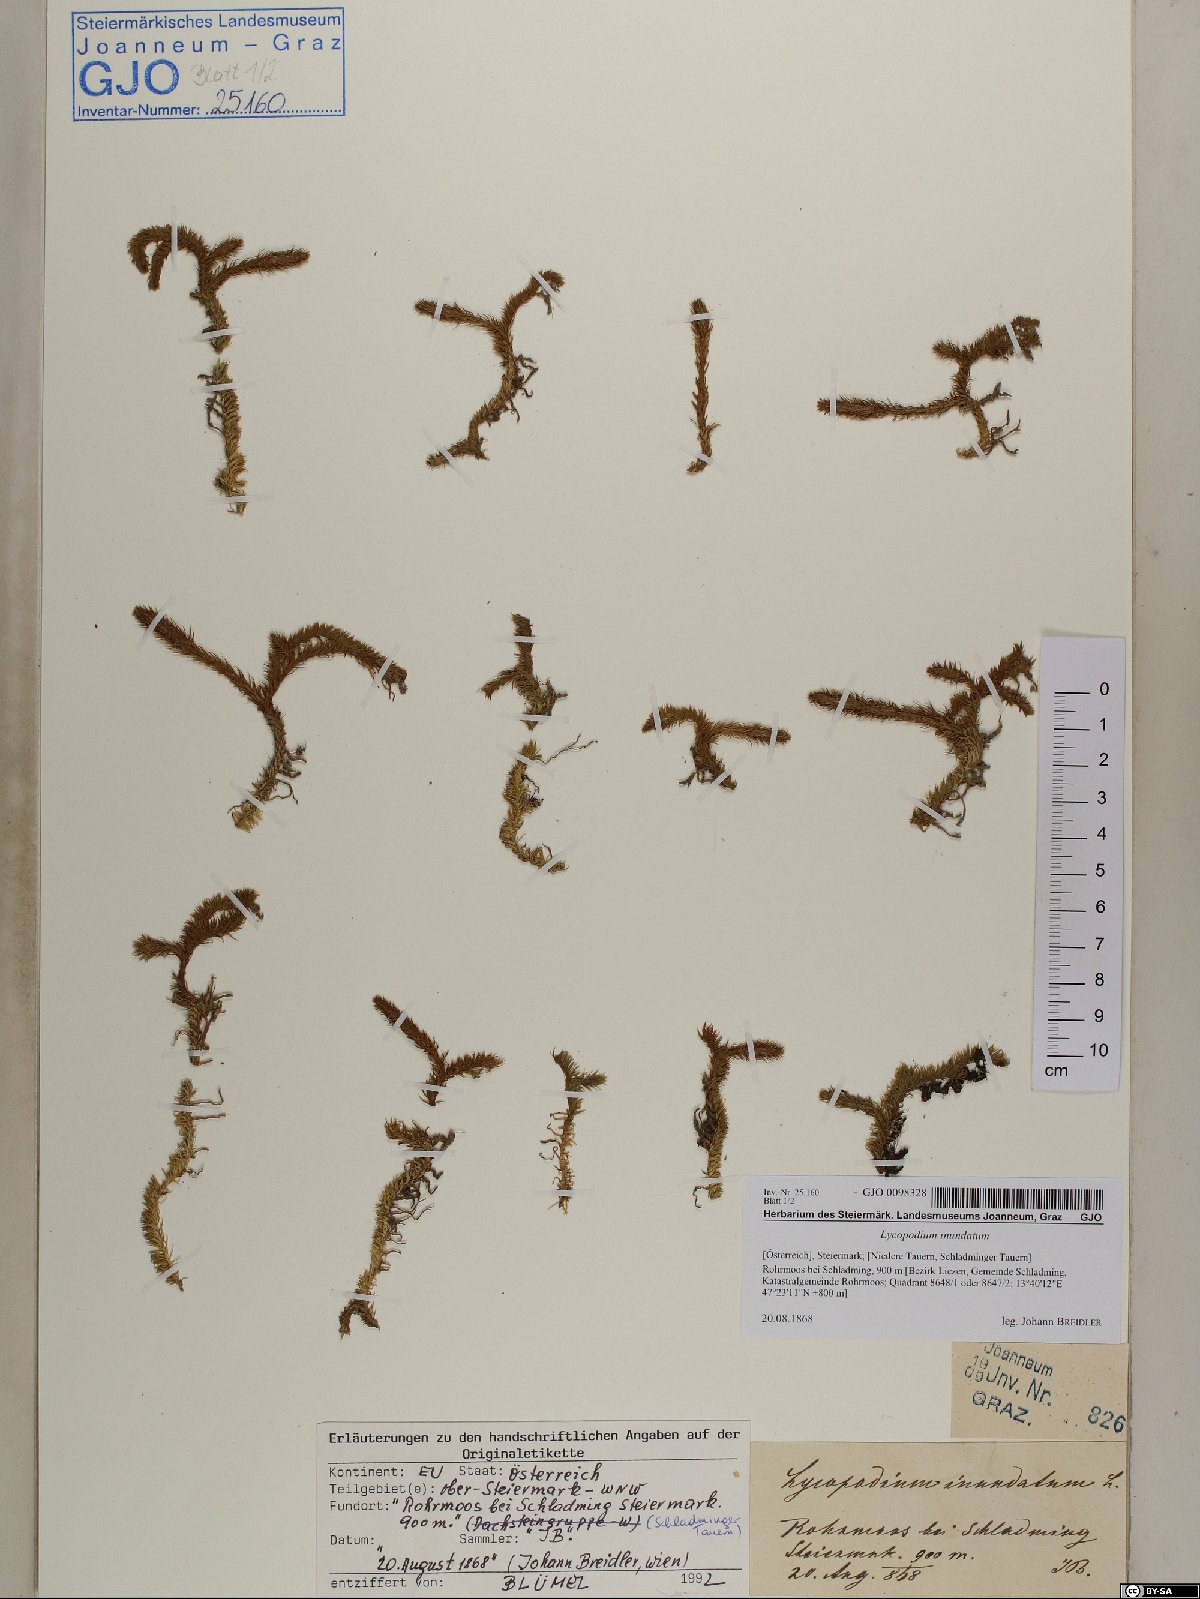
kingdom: Plantae
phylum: Tracheophyta
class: Lycopodiopsida
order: Lycopodiales
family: Lycopodiaceae
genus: Lycopodiella
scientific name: Lycopodiella inundata
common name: Marsh clubmoss
